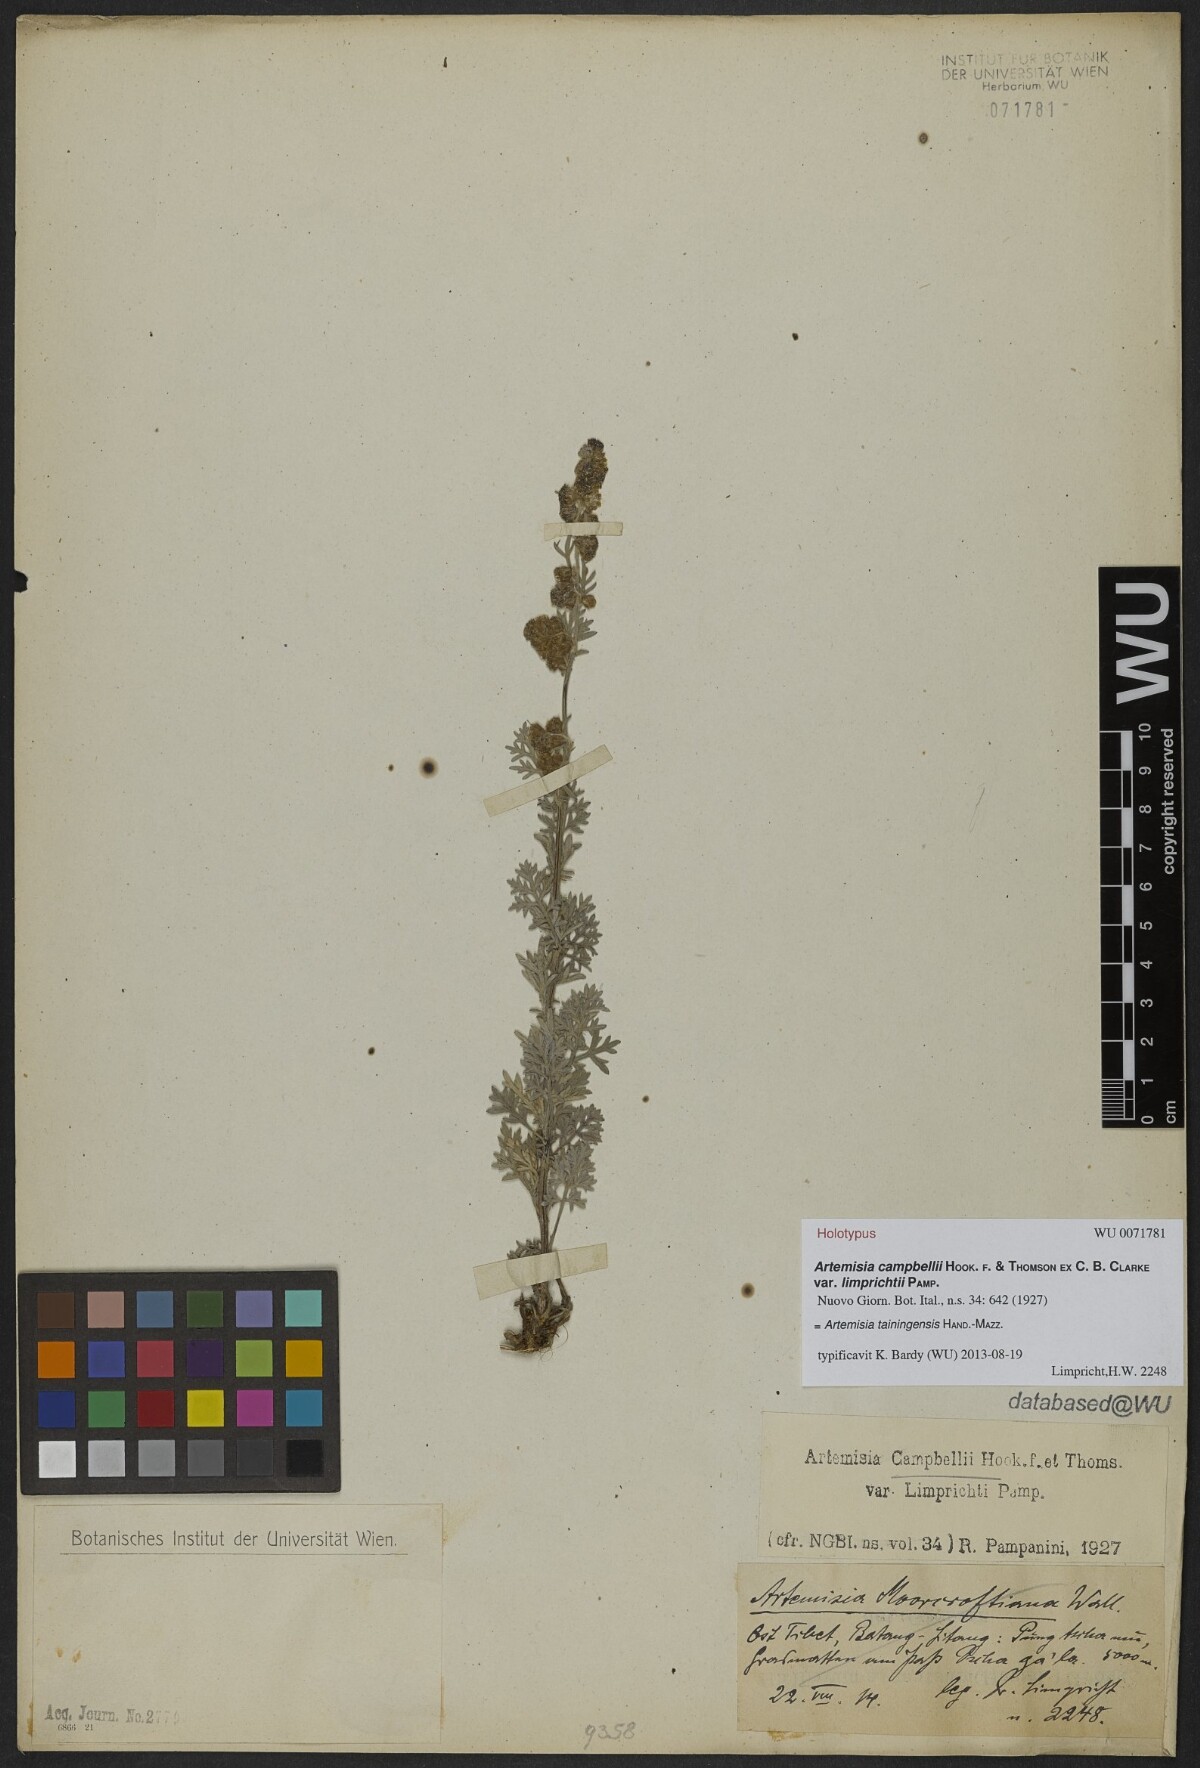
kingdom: Plantae
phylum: Tracheophyta
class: Magnoliopsida
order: Asterales
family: Asteraceae
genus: Artemisia
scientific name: Artemisia tainingensis
